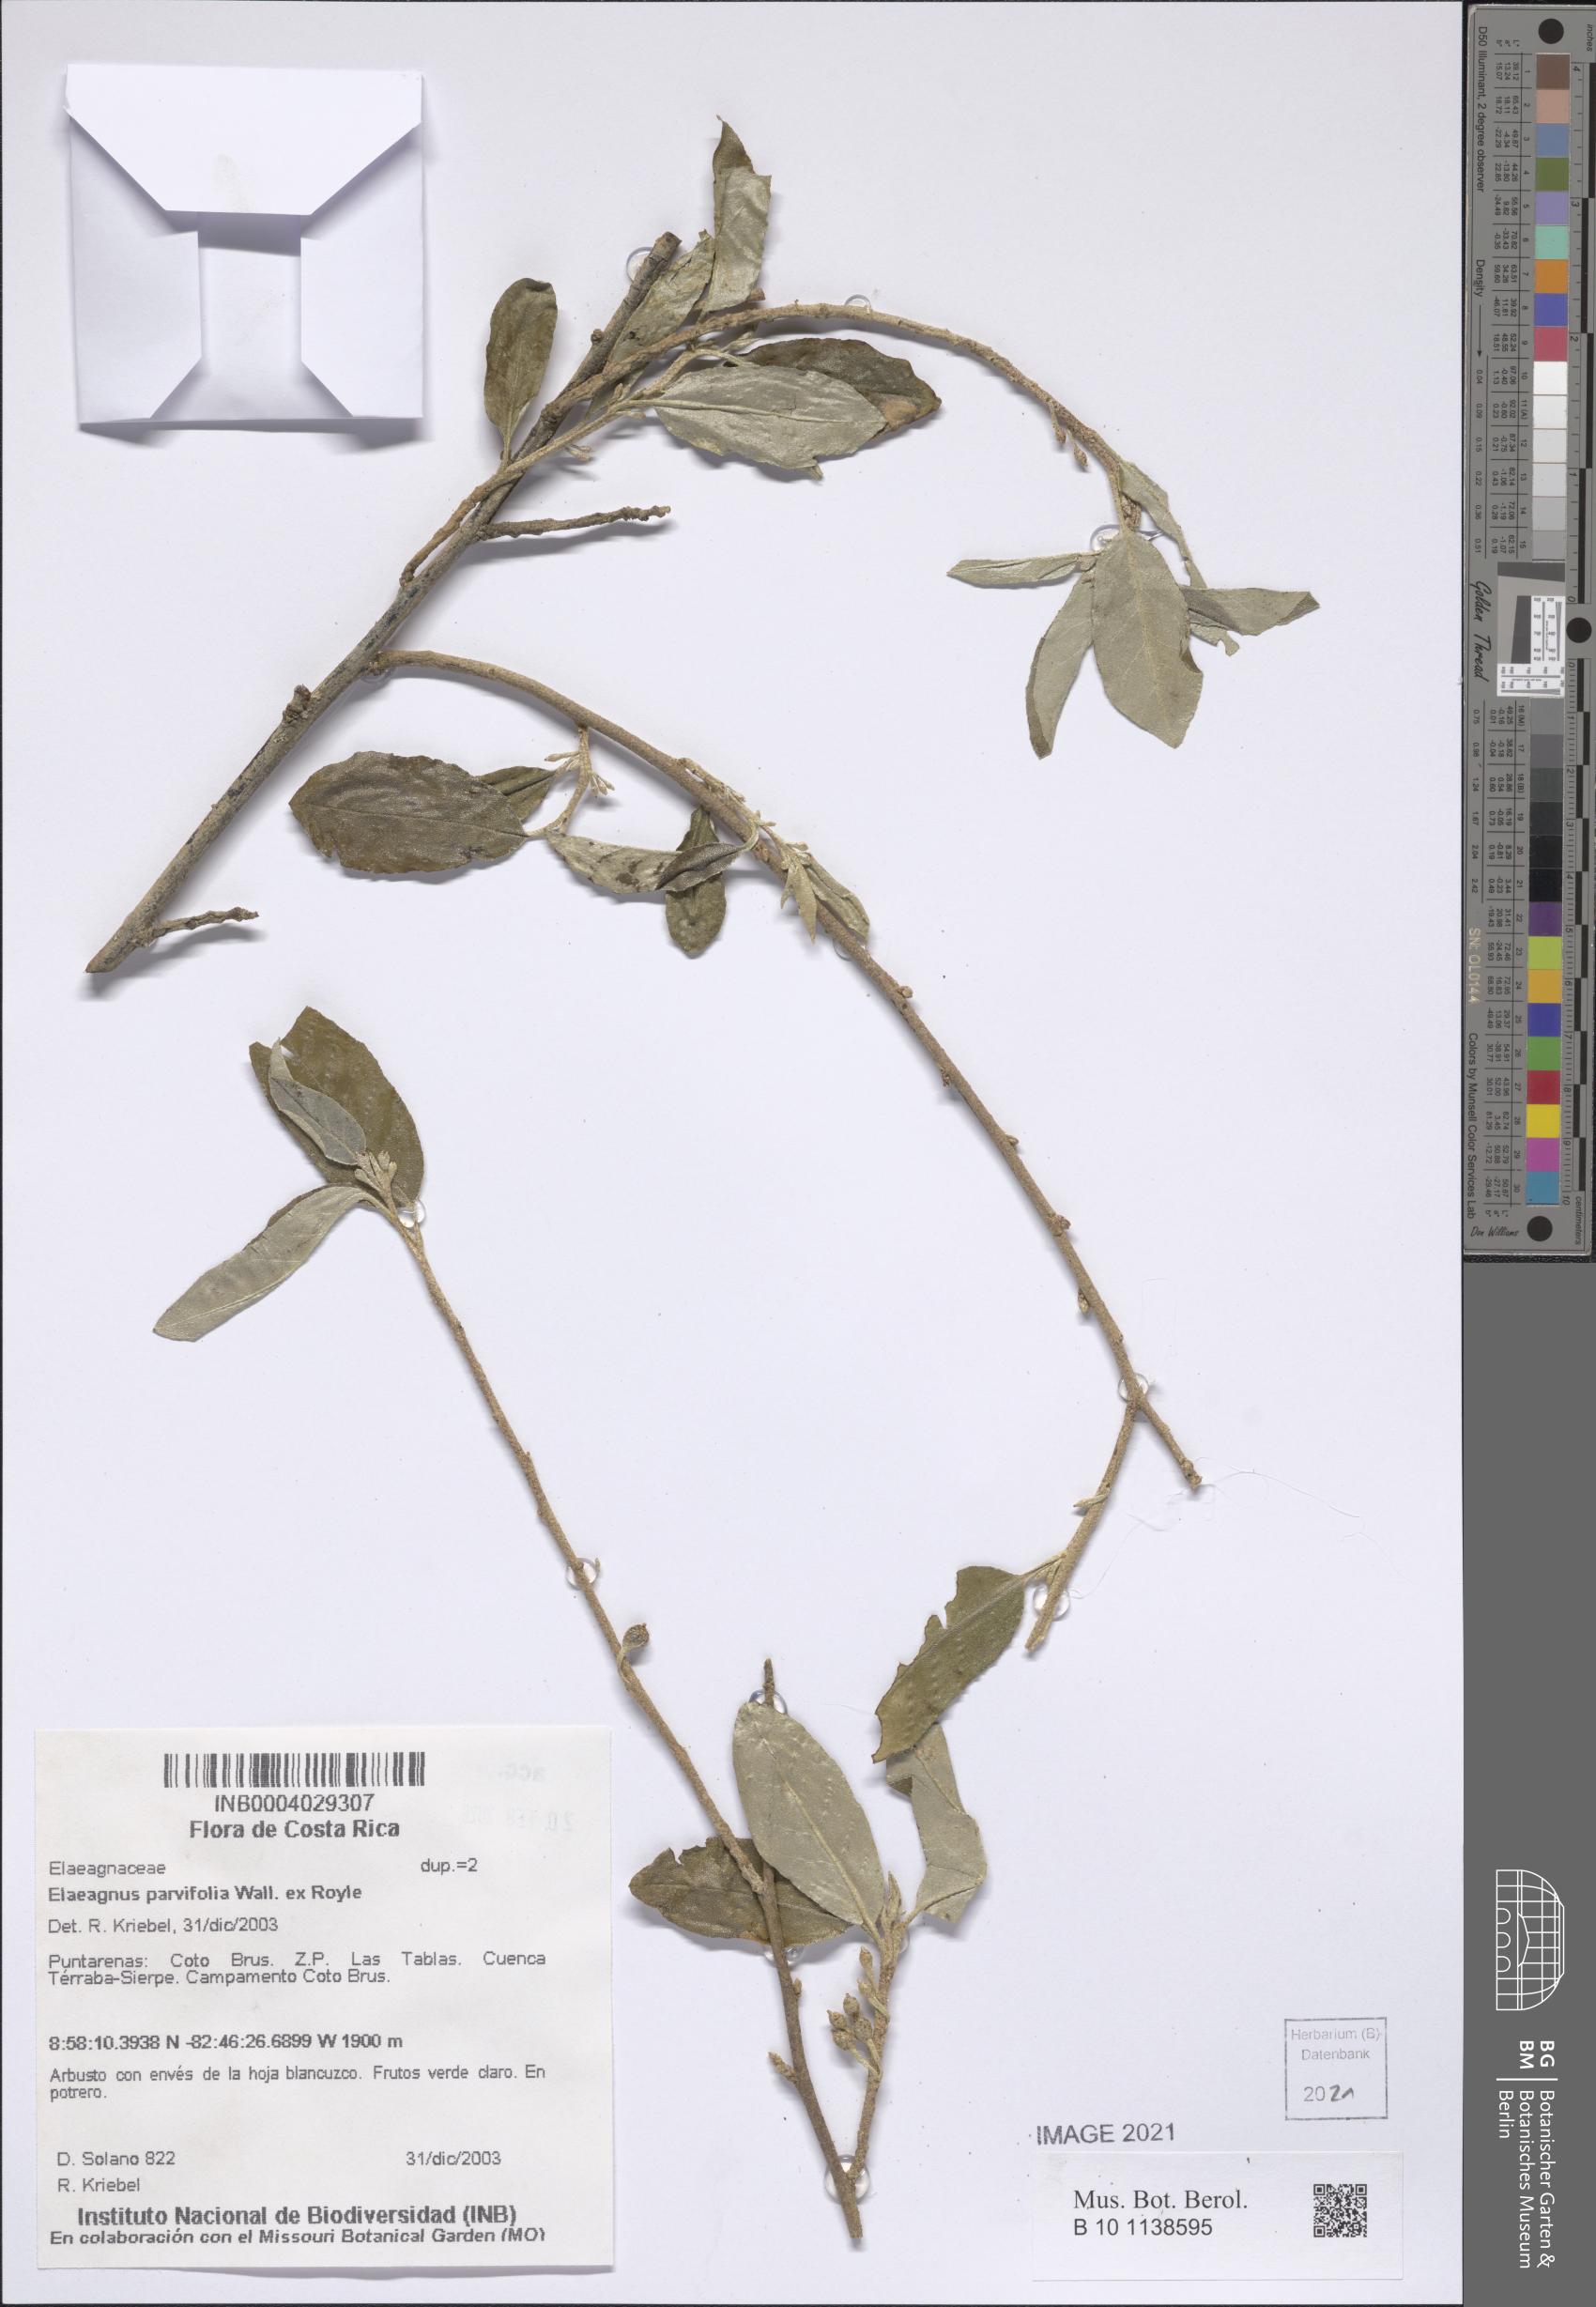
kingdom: Plantae
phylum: Tracheophyta
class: Magnoliopsida
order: Rosales
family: Elaeagnaceae
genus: Elaeagnus
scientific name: Elaeagnus umbellata
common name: Autumn olive
